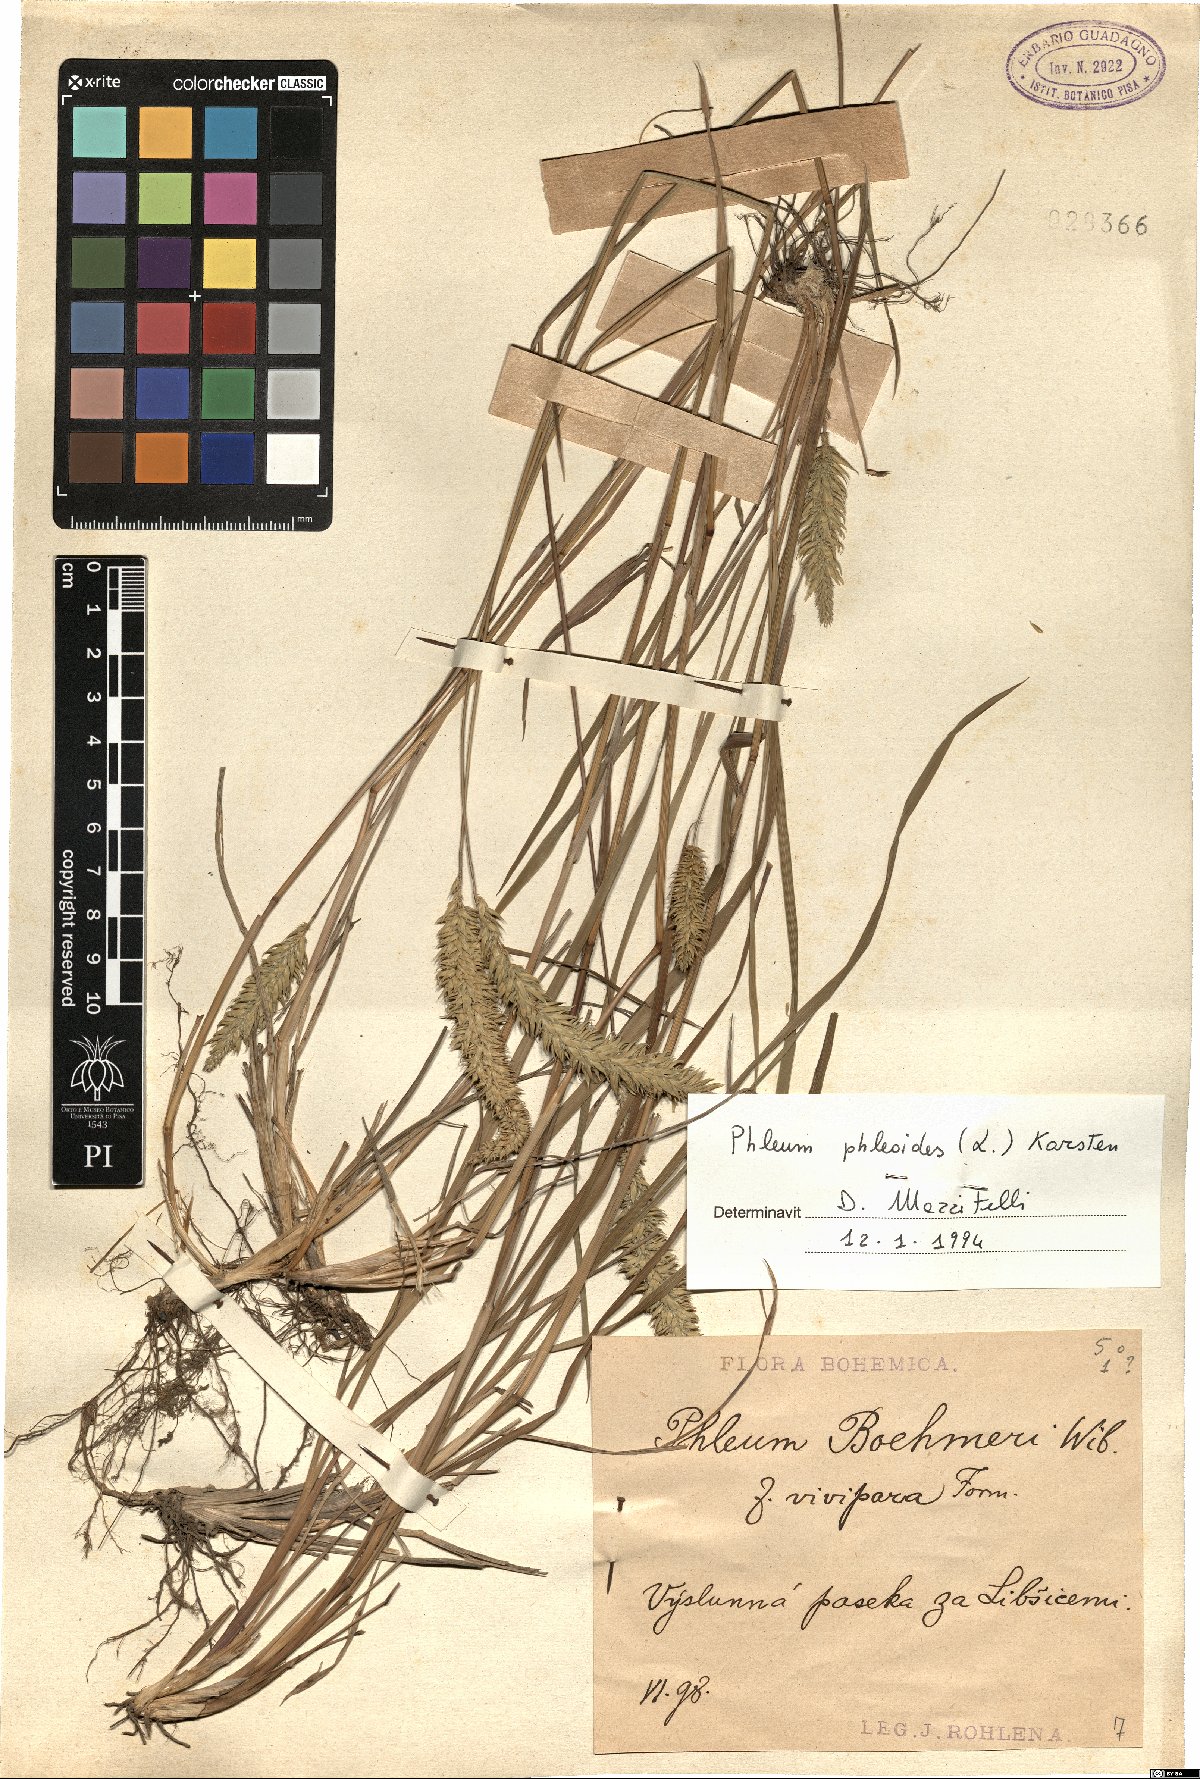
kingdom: Plantae
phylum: Tracheophyta
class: Liliopsida
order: Poales
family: Poaceae
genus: Phleum
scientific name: Phleum phleoides
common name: Purple-stem cat's-tail
